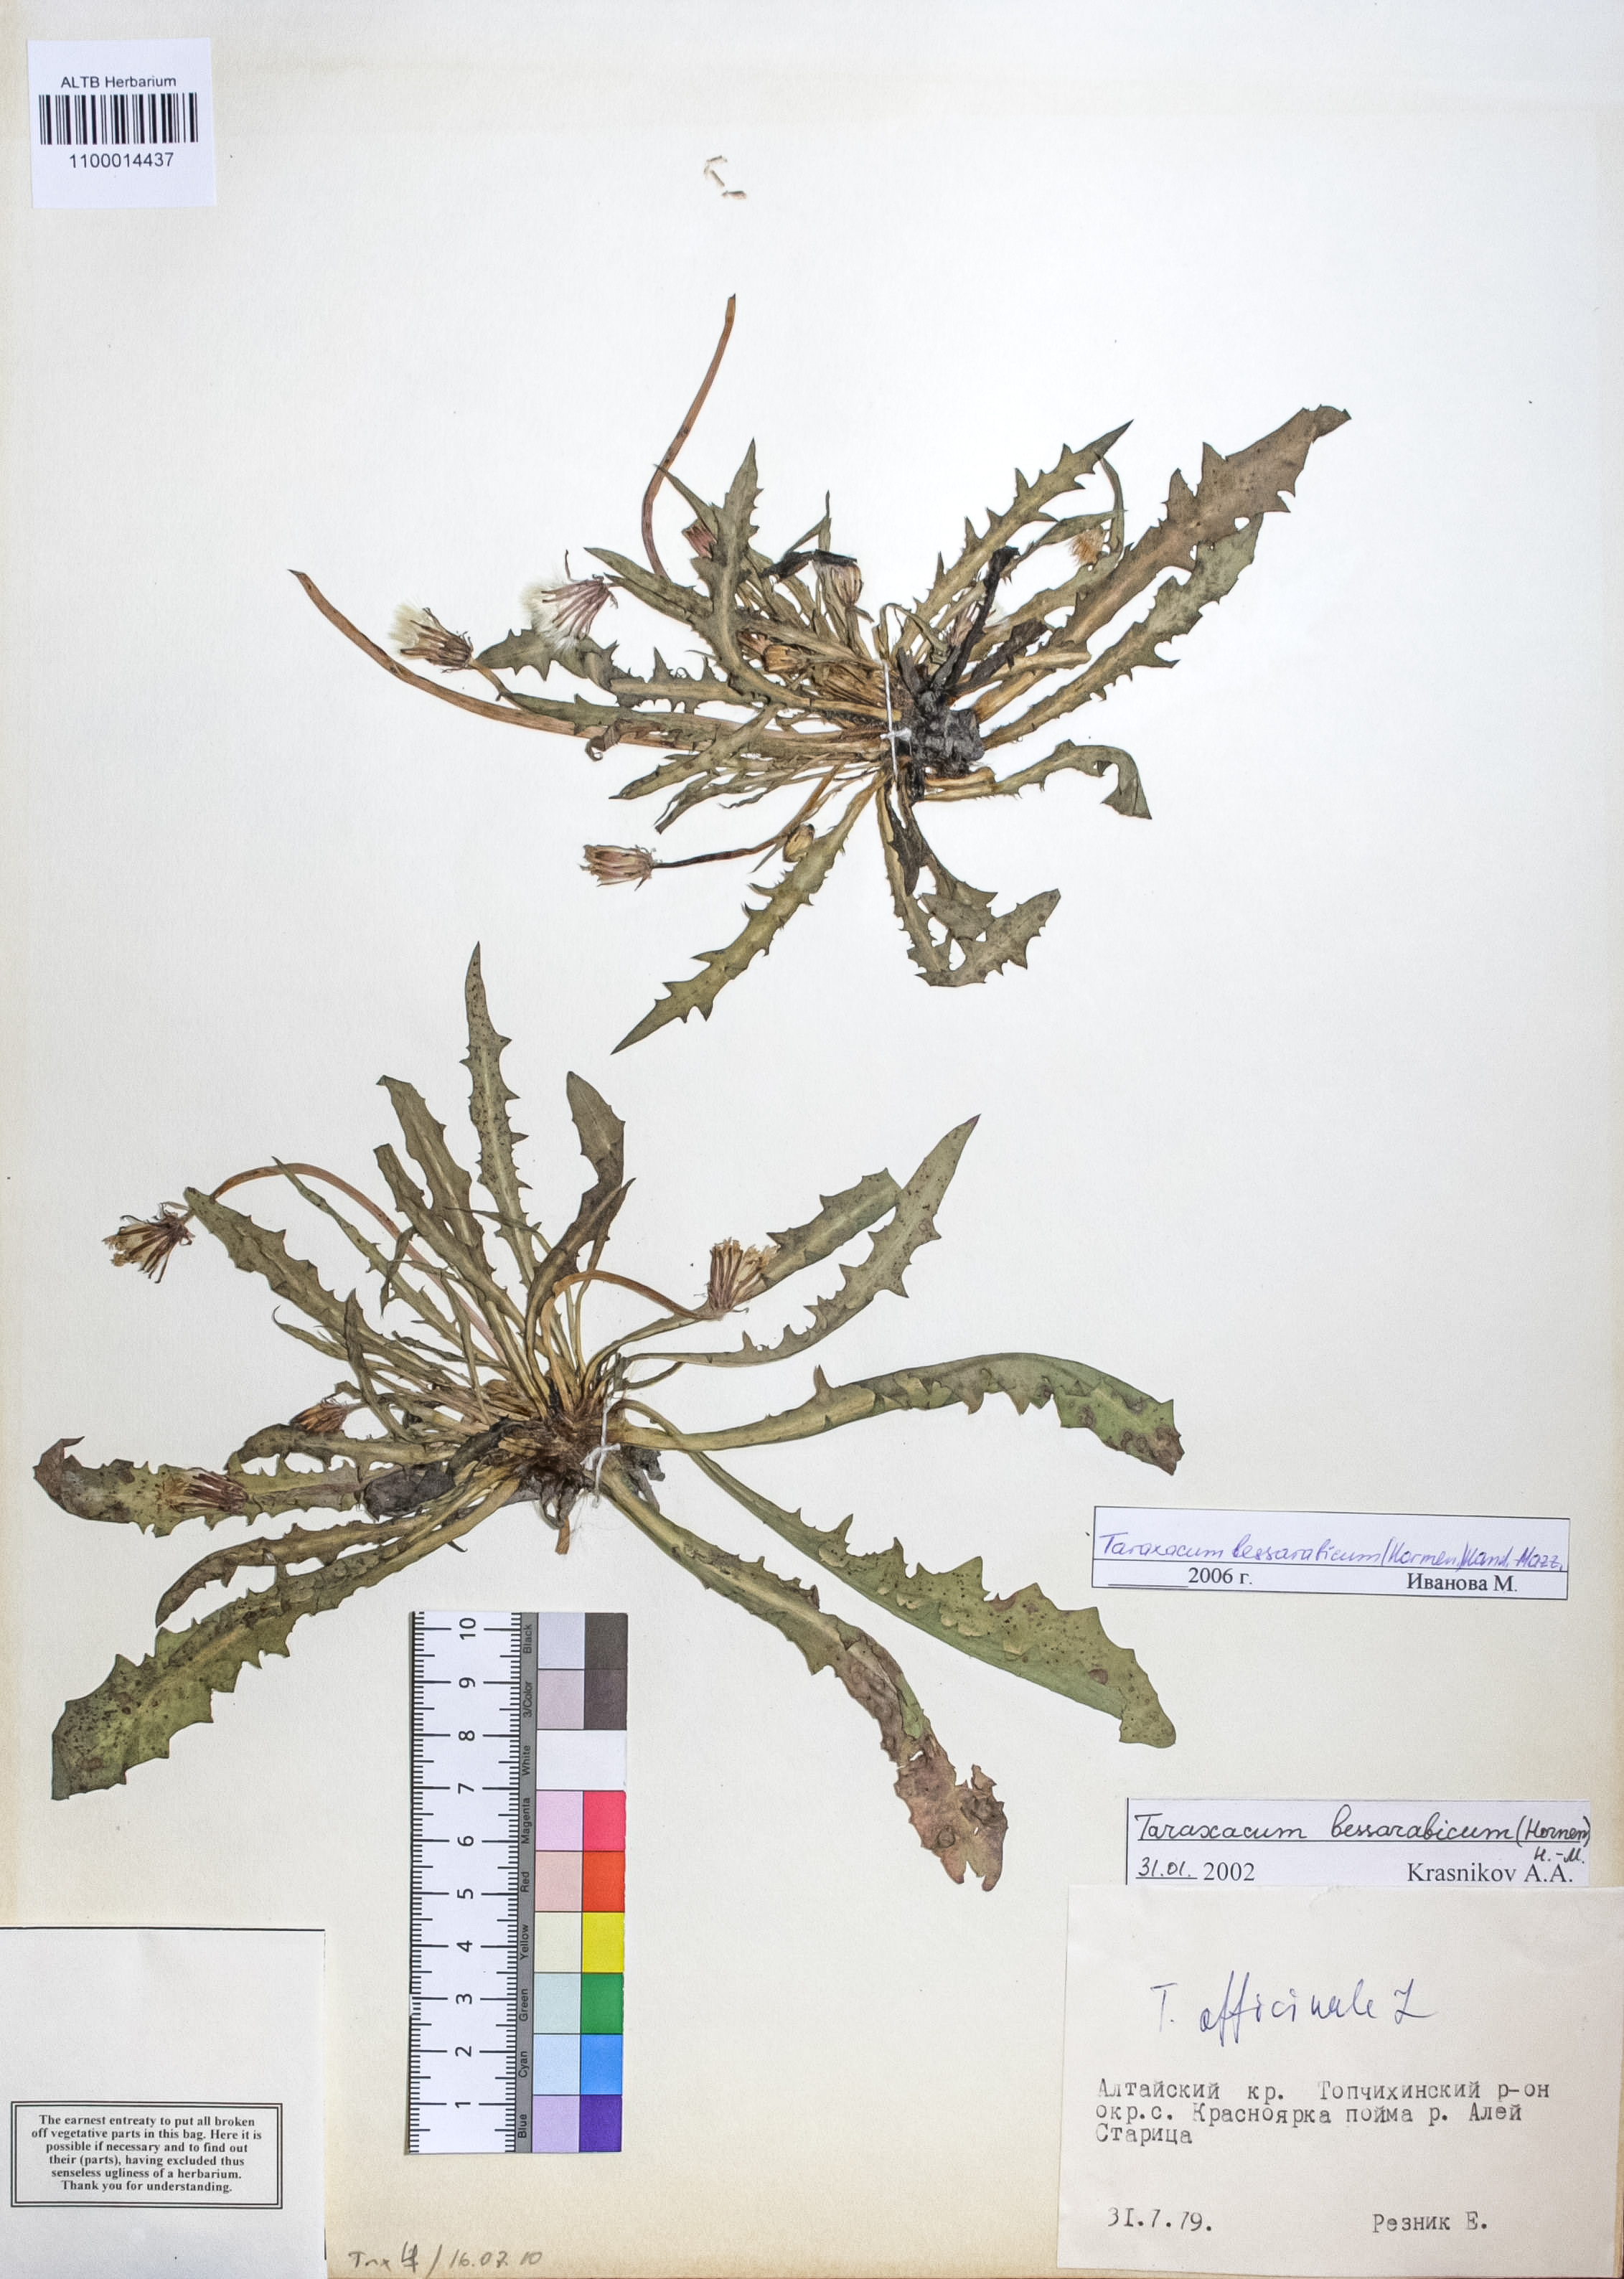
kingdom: Plantae
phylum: Tracheophyta
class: Magnoliopsida
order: Asterales
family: Asteraceae
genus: Taraxacum
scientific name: Taraxacum bessarabicum
